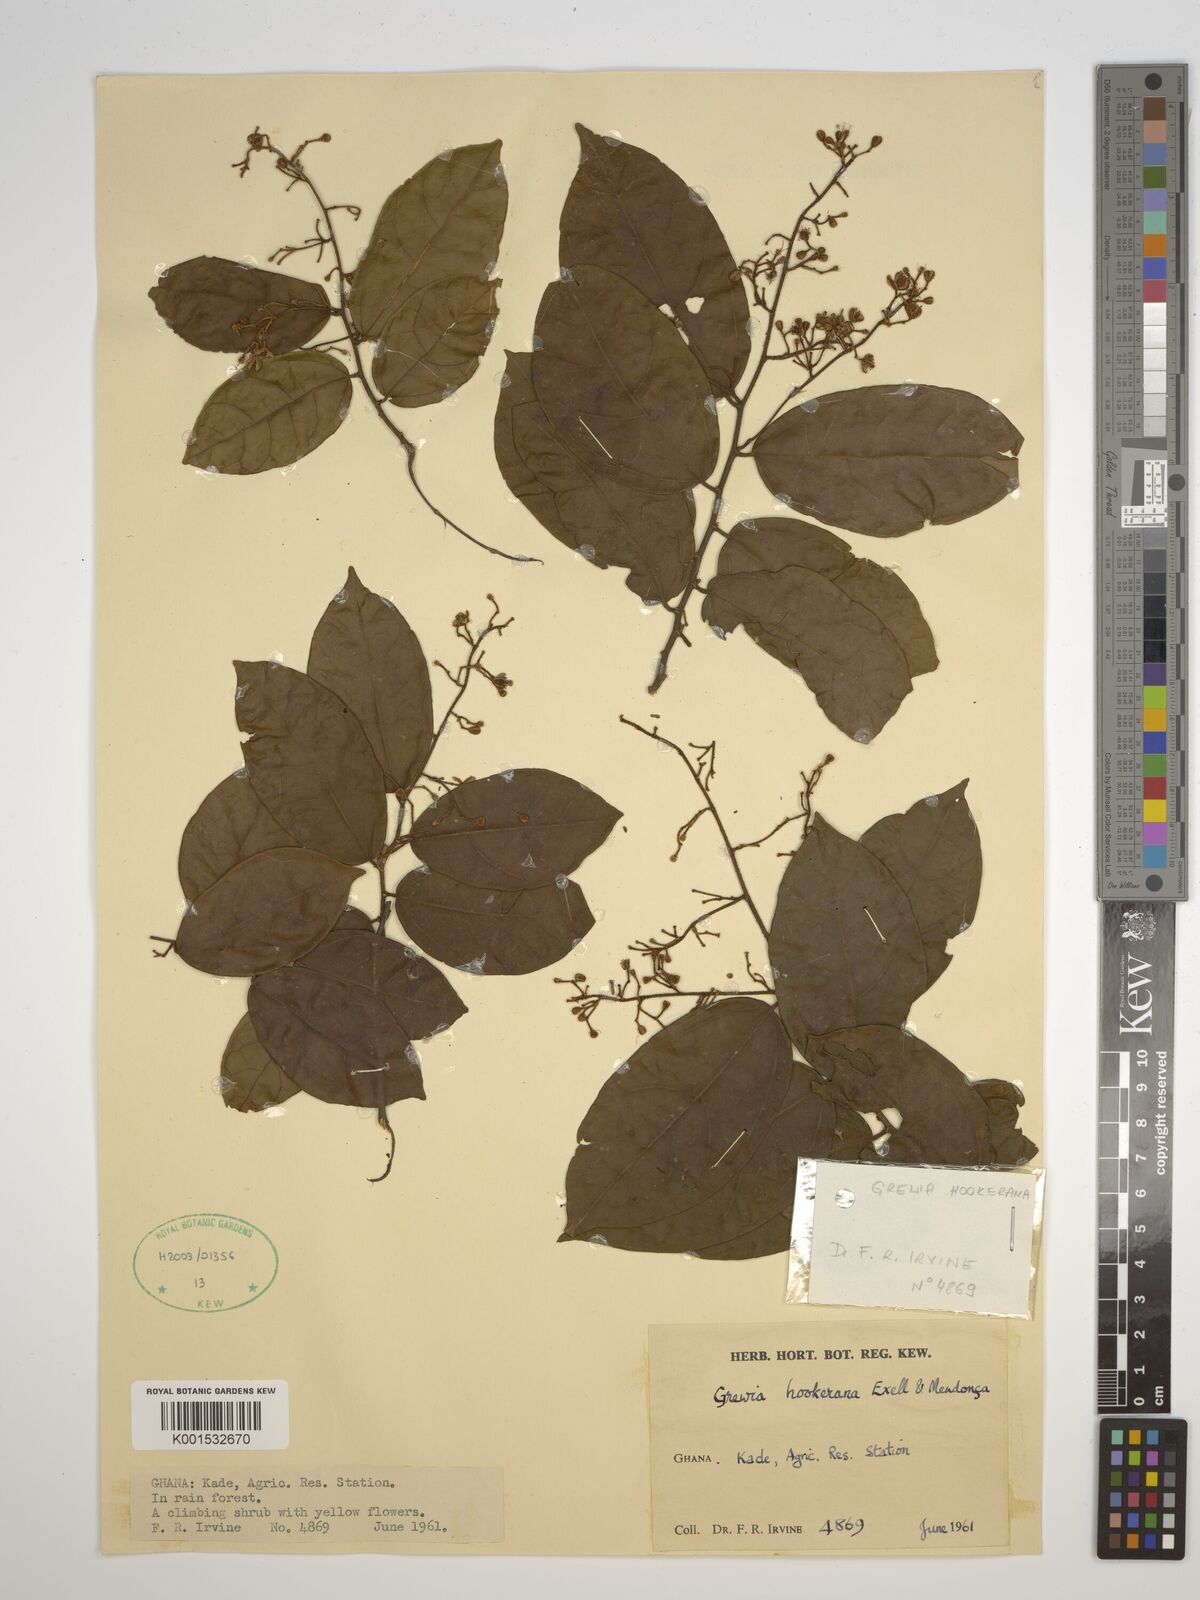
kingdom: Plantae
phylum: Tracheophyta
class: Magnoliopsida
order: Malvales
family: Malvaceae
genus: Microcos
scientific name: Microcos africana
